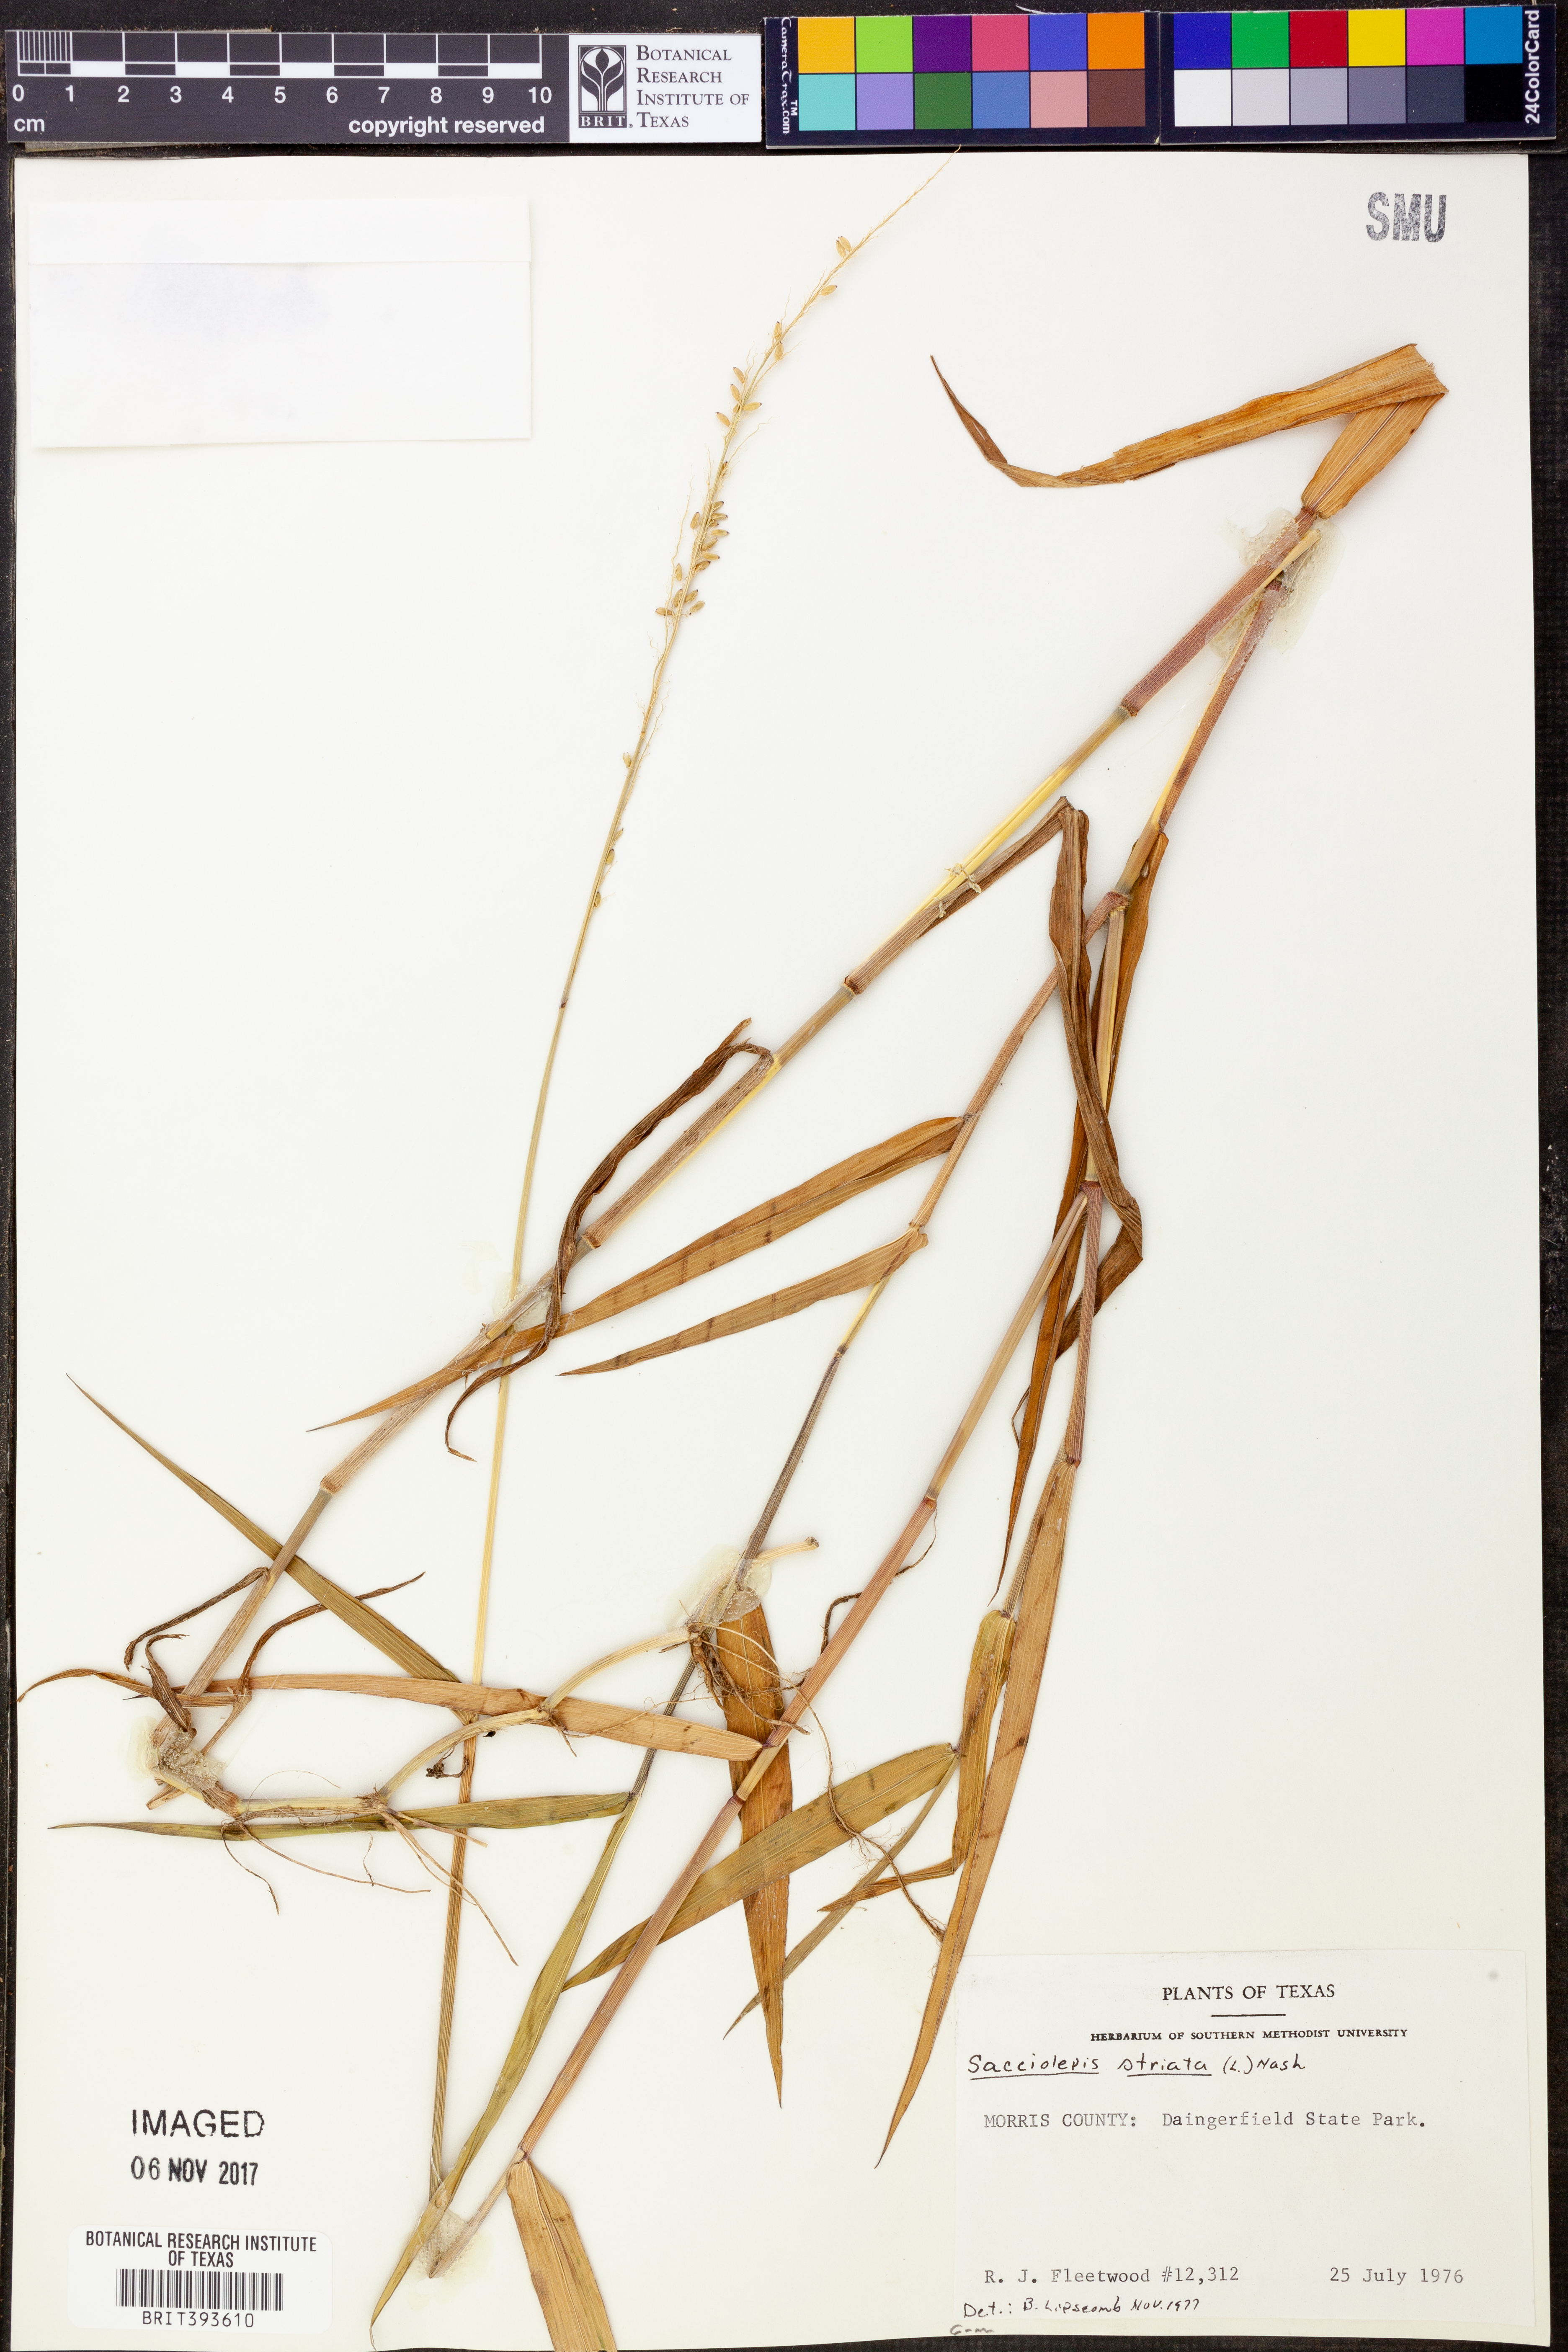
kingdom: Plantae
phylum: Tracheophyta
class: Liliopsida
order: Poales
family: Poaceae
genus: Sacciolepis
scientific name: Sacciolepis striata
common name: American cupscale
